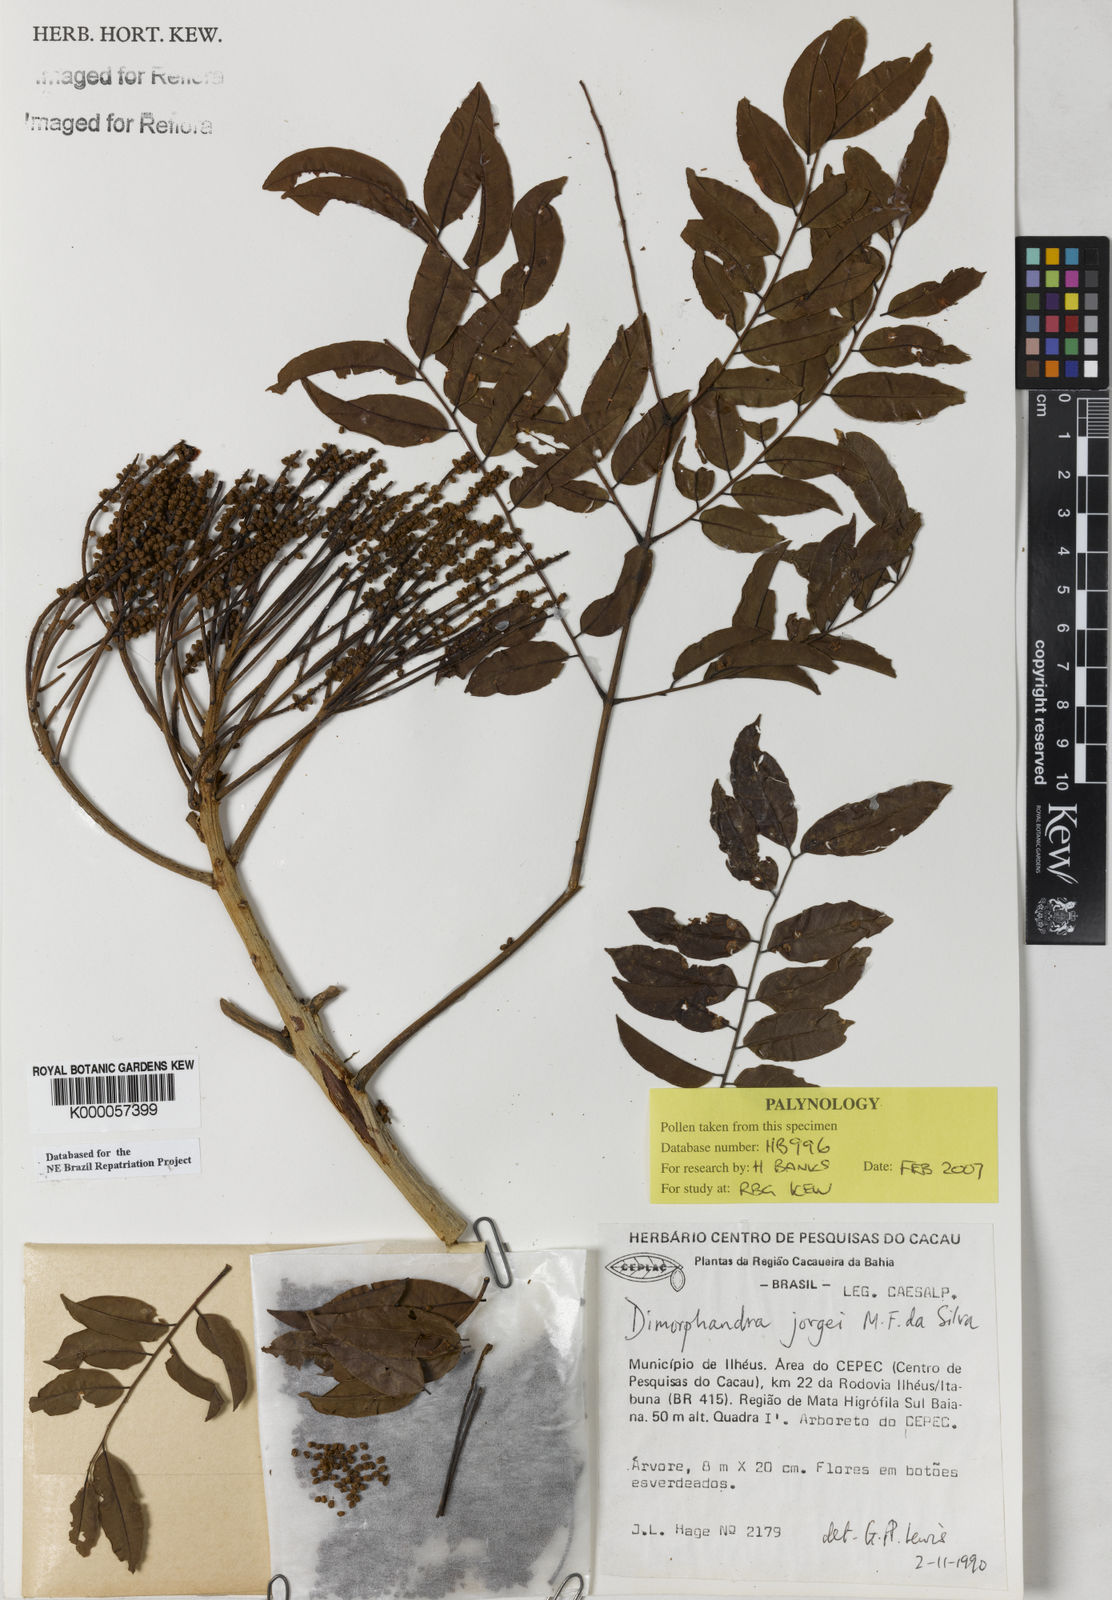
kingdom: Plantae
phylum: Tracheophyta
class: Magnoliopsida
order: Fabales
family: Fabaceae
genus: Dimorphandra
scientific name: Dimorphandra jorgei
